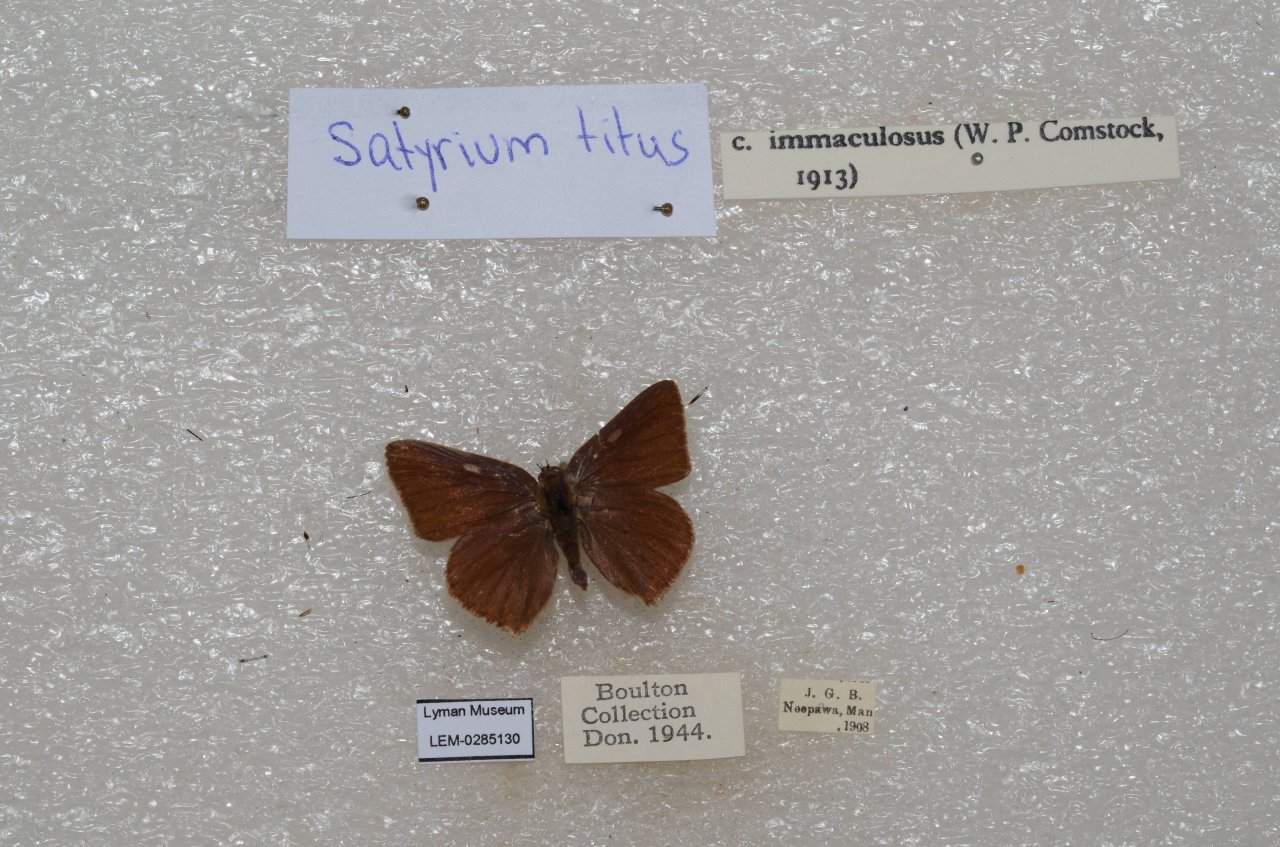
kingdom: Animalia
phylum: Arthropoda
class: Insecta
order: Lepidoptera
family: Lycaenidae
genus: Harkenclenus
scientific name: Harkenclenus titus
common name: Coral Hairstreak
